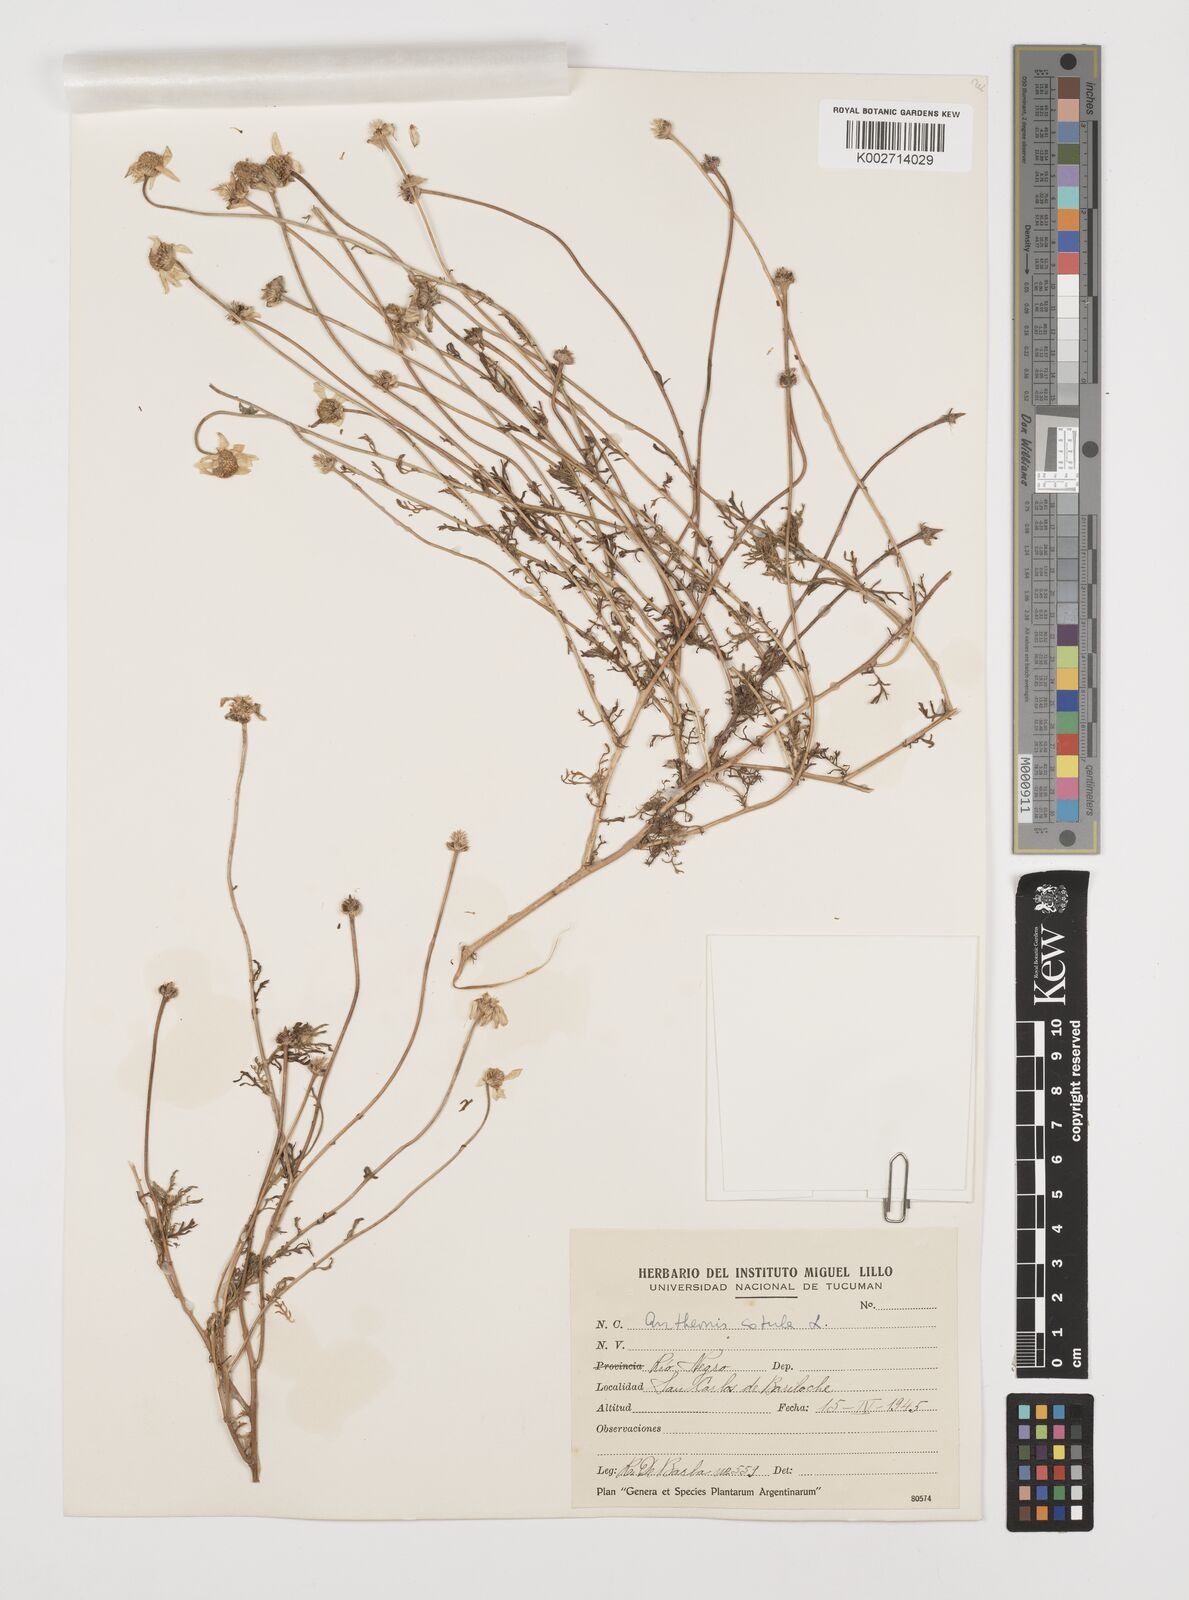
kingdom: Plantae
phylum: Tracheophyta
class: Magnoliopsida
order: Asterales
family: Asteraceae
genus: Anthemis
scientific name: Anthemis cotula
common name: Stinking chamomile
